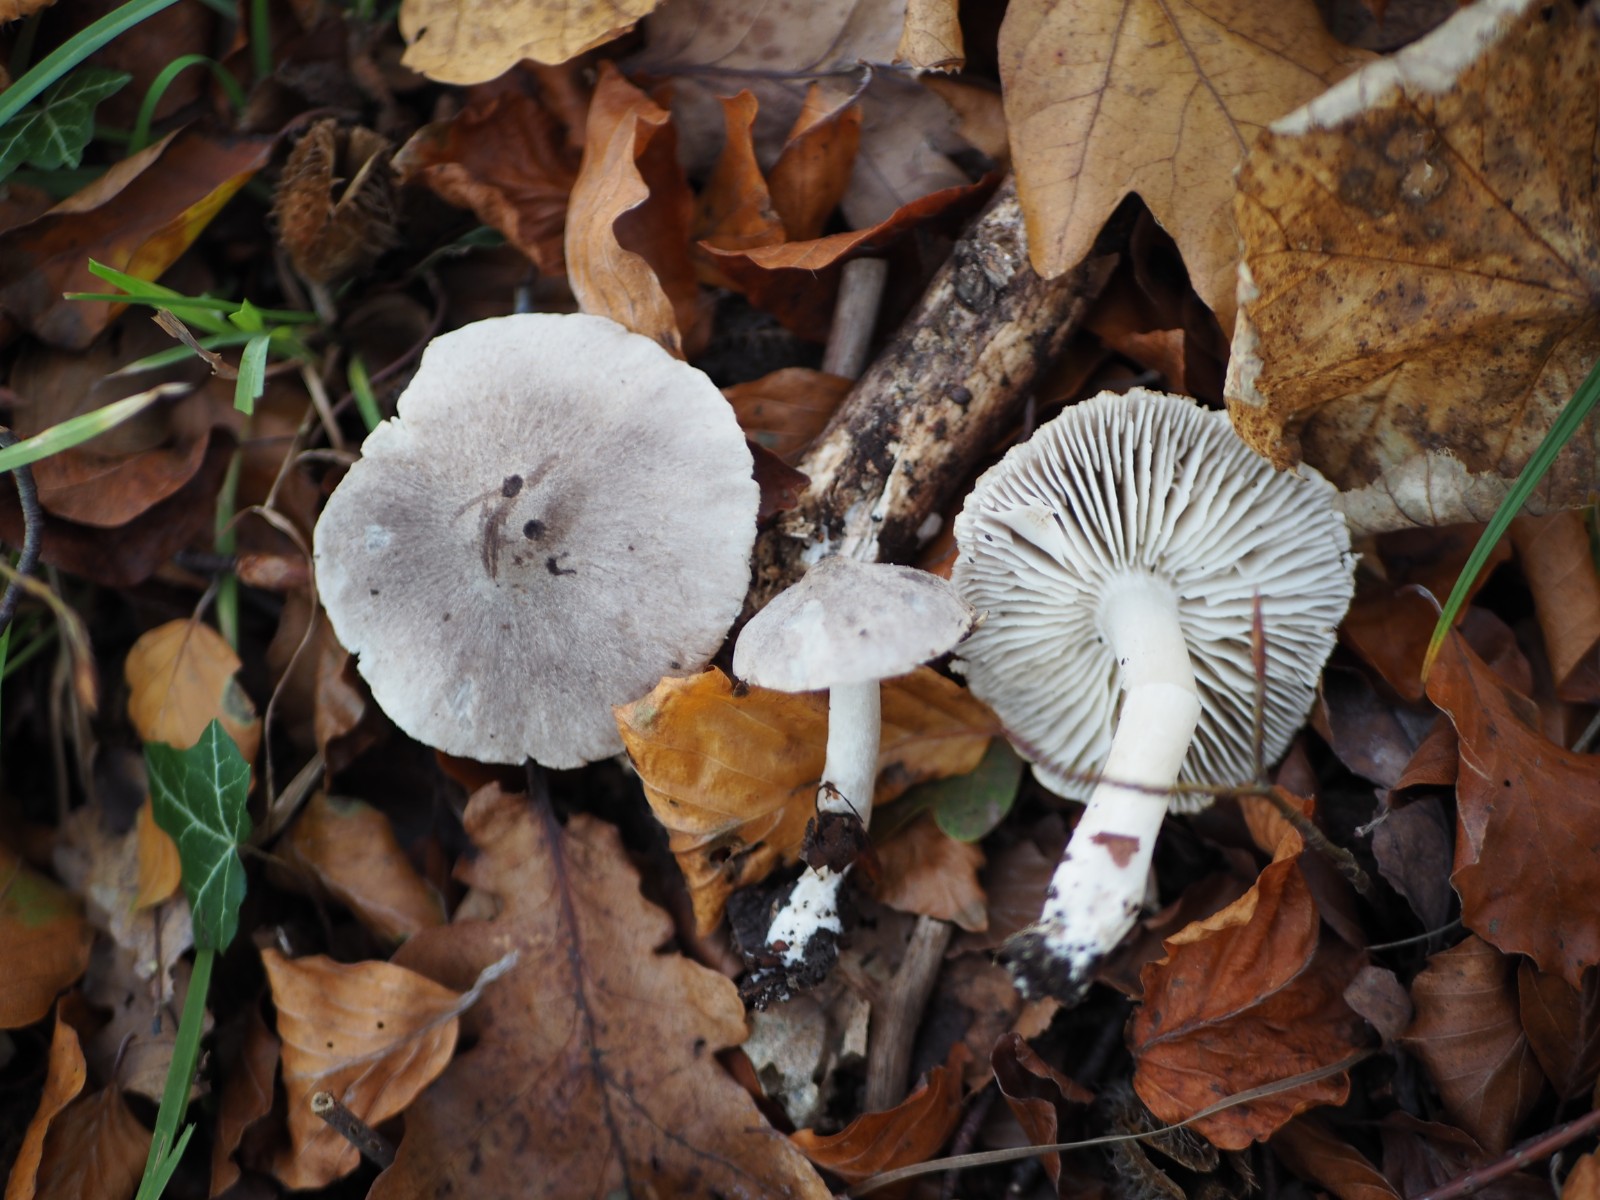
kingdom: Fungi
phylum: Basidiomycota
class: Agaricomycetes
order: Agaricales
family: Tricholomataceae
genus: Tricholoma
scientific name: Tricholoma terreum
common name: jordfarvet ridderhat
